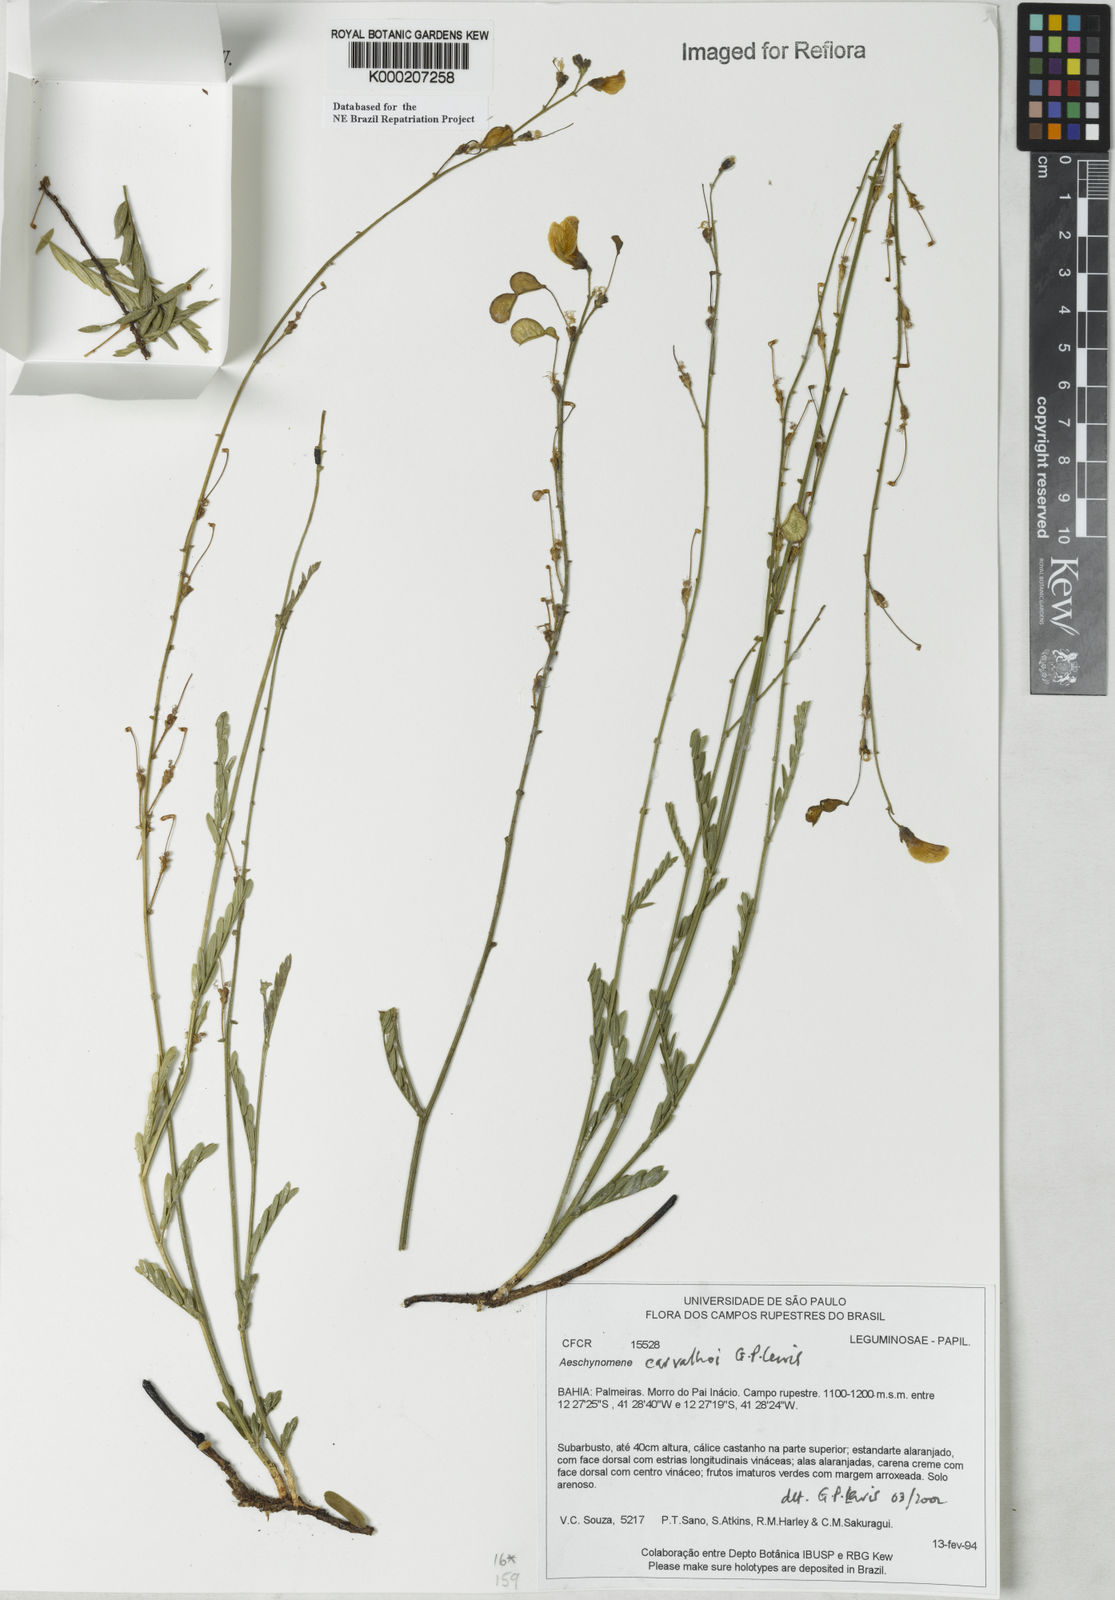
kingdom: Plantae
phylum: Tracheophyta
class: Magnoliopsida
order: Fabales
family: Fabaceae
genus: Ctenodon
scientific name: Ctenodon carvalhoi
